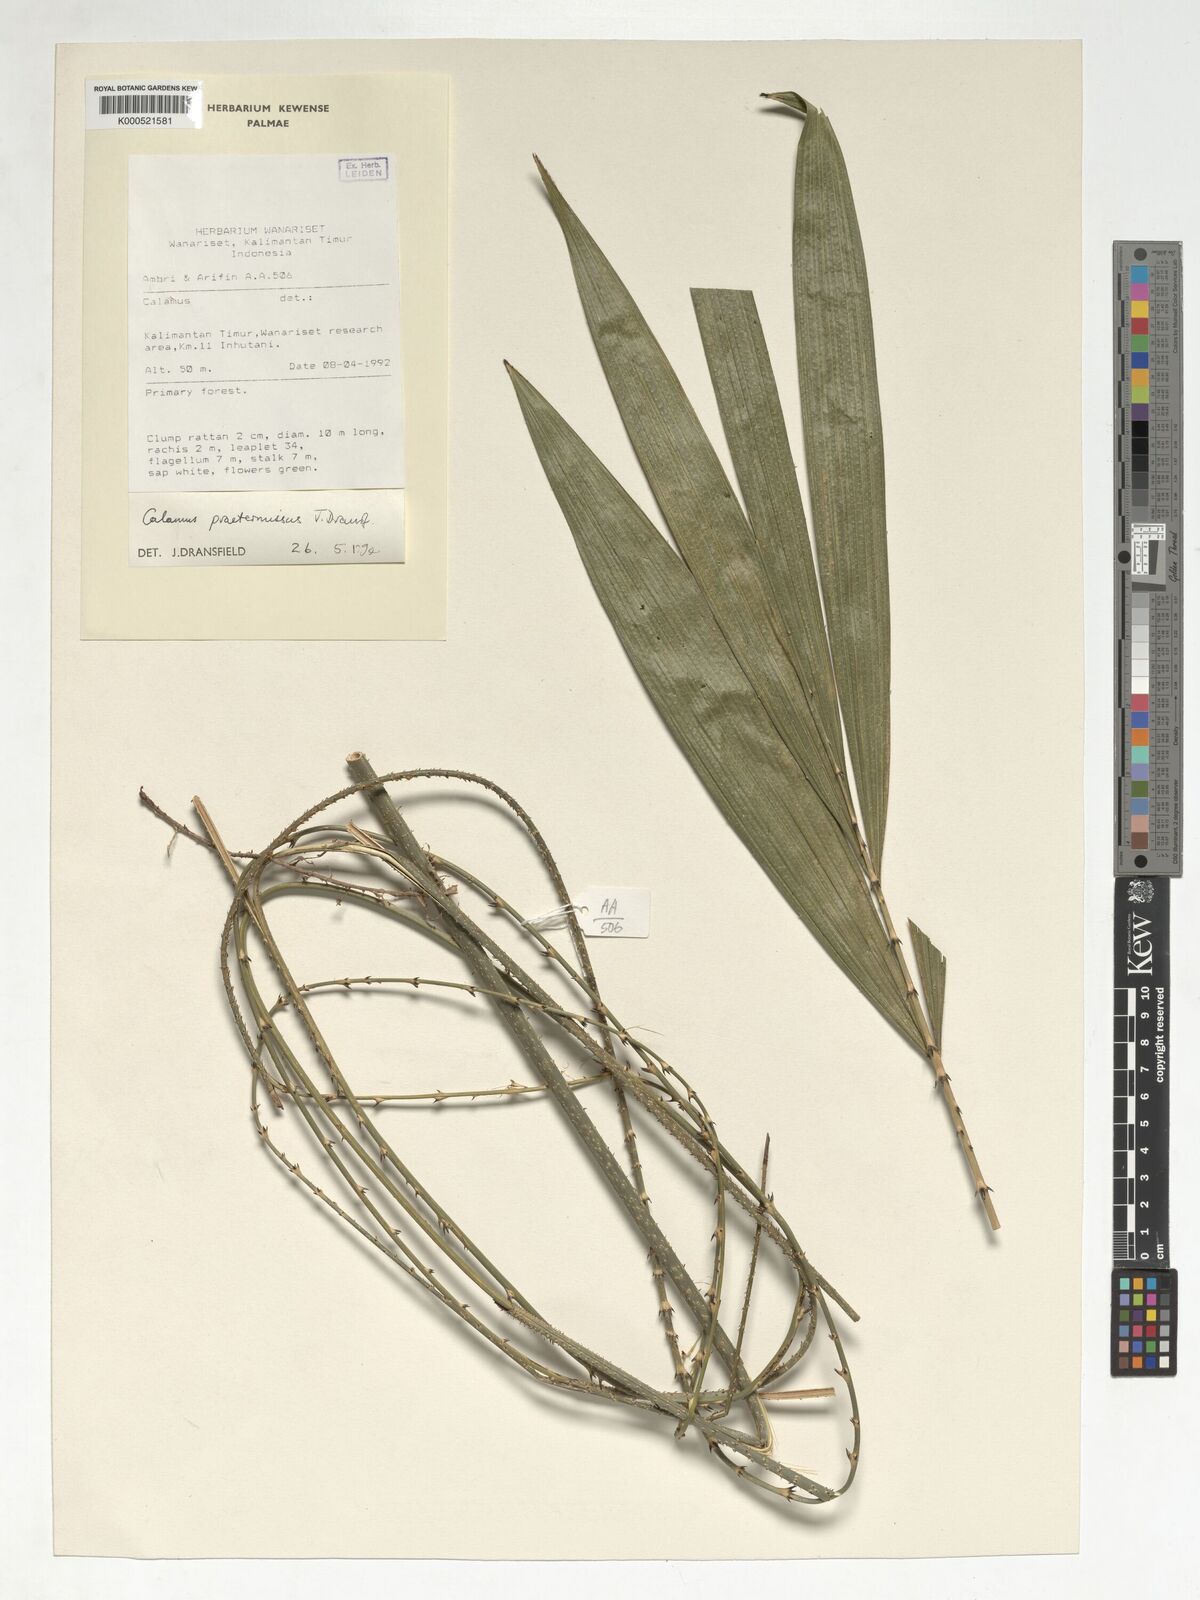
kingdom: Plantae
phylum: Tracheophyta
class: Liliopsida
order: Arecales
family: Arecaceae
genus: Calamus
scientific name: Calamus praetermissus
